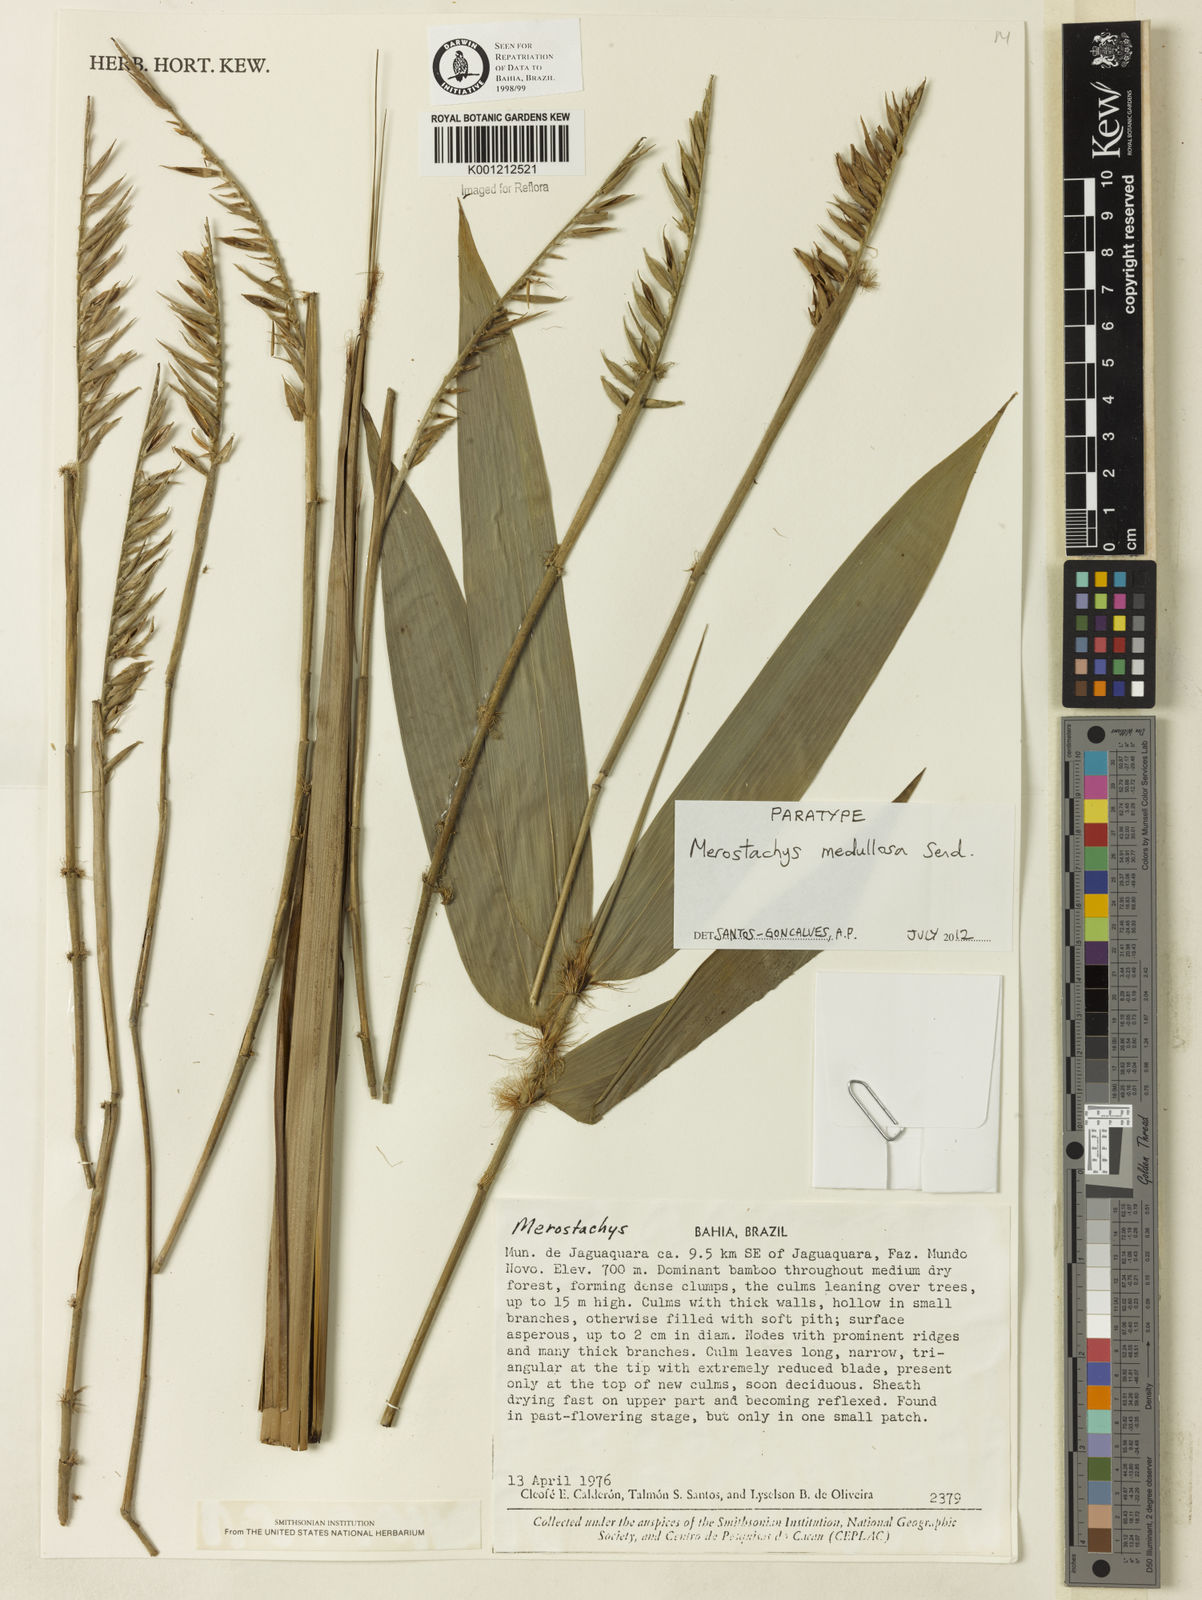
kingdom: Plantae
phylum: Tracheophyta
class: Liliopsida
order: Poales
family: Poaceae
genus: Merostachys
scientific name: Merostachys medullosa
